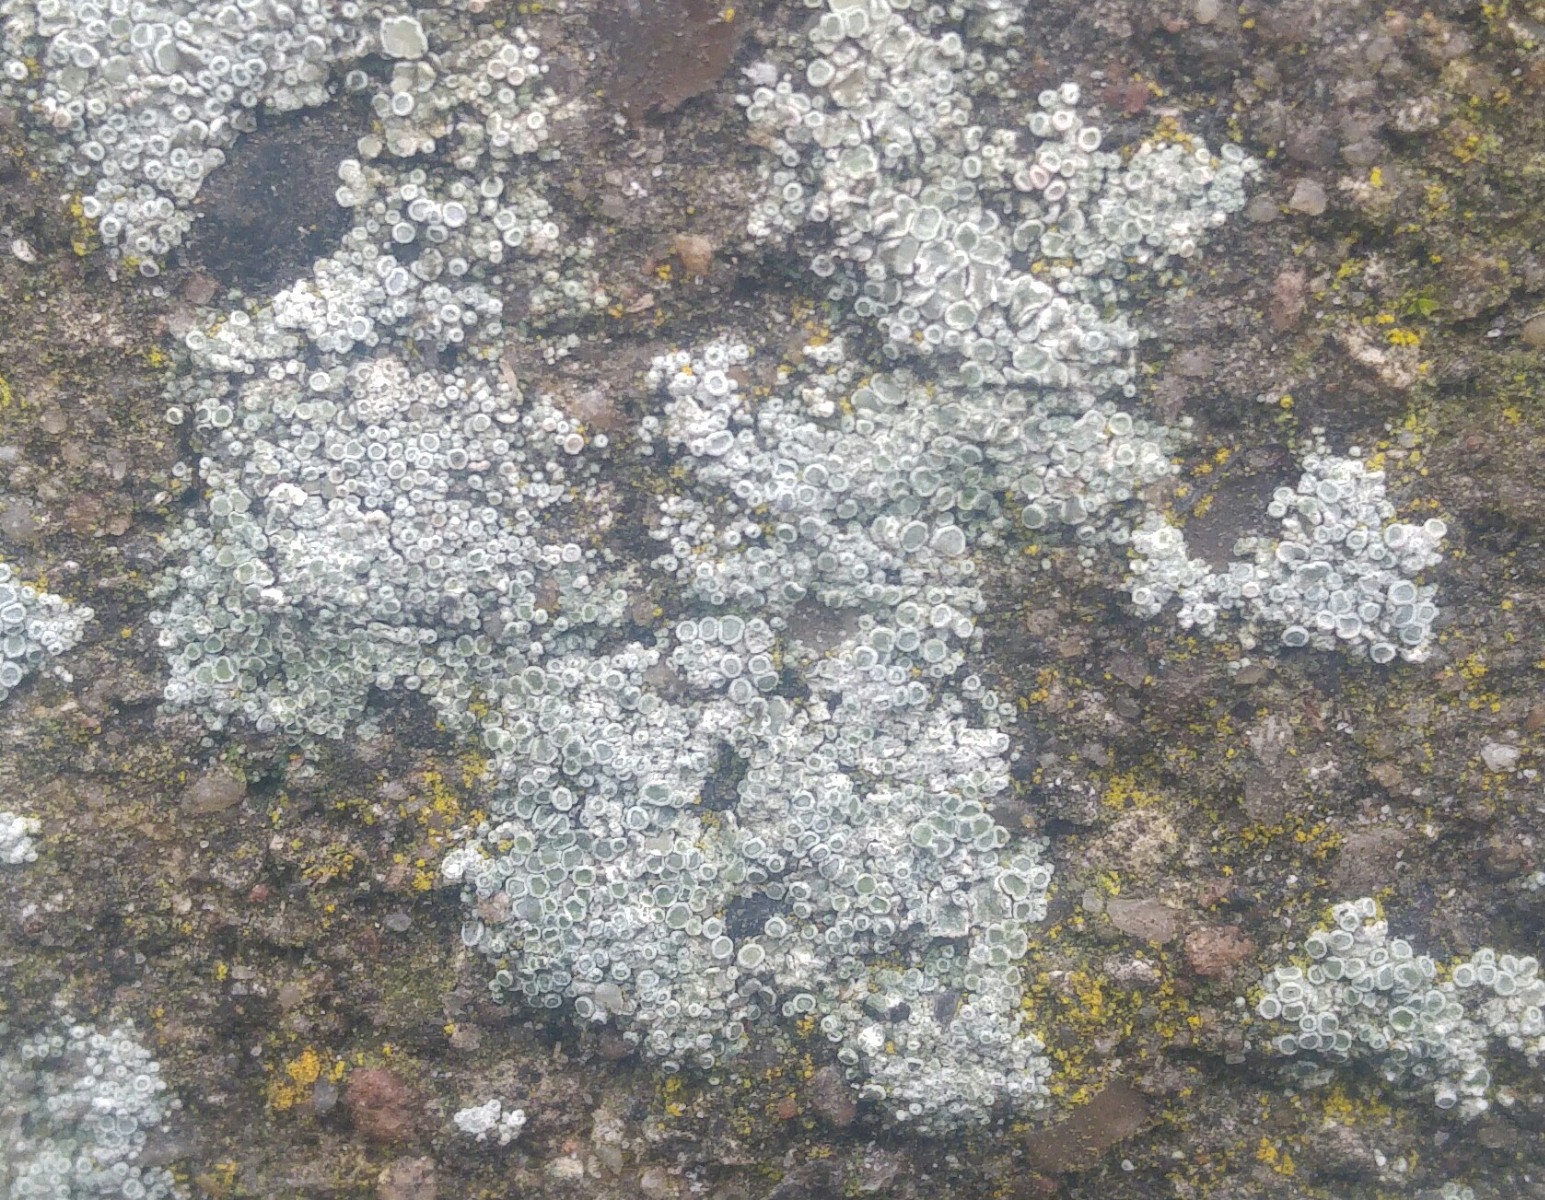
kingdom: Fungi
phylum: Ascomycota
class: Lecanoromycetes
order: Lecanorales
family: Lecanoraceae
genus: Polyozosia
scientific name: Polyozosia albescens
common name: cement-kantskivelav
